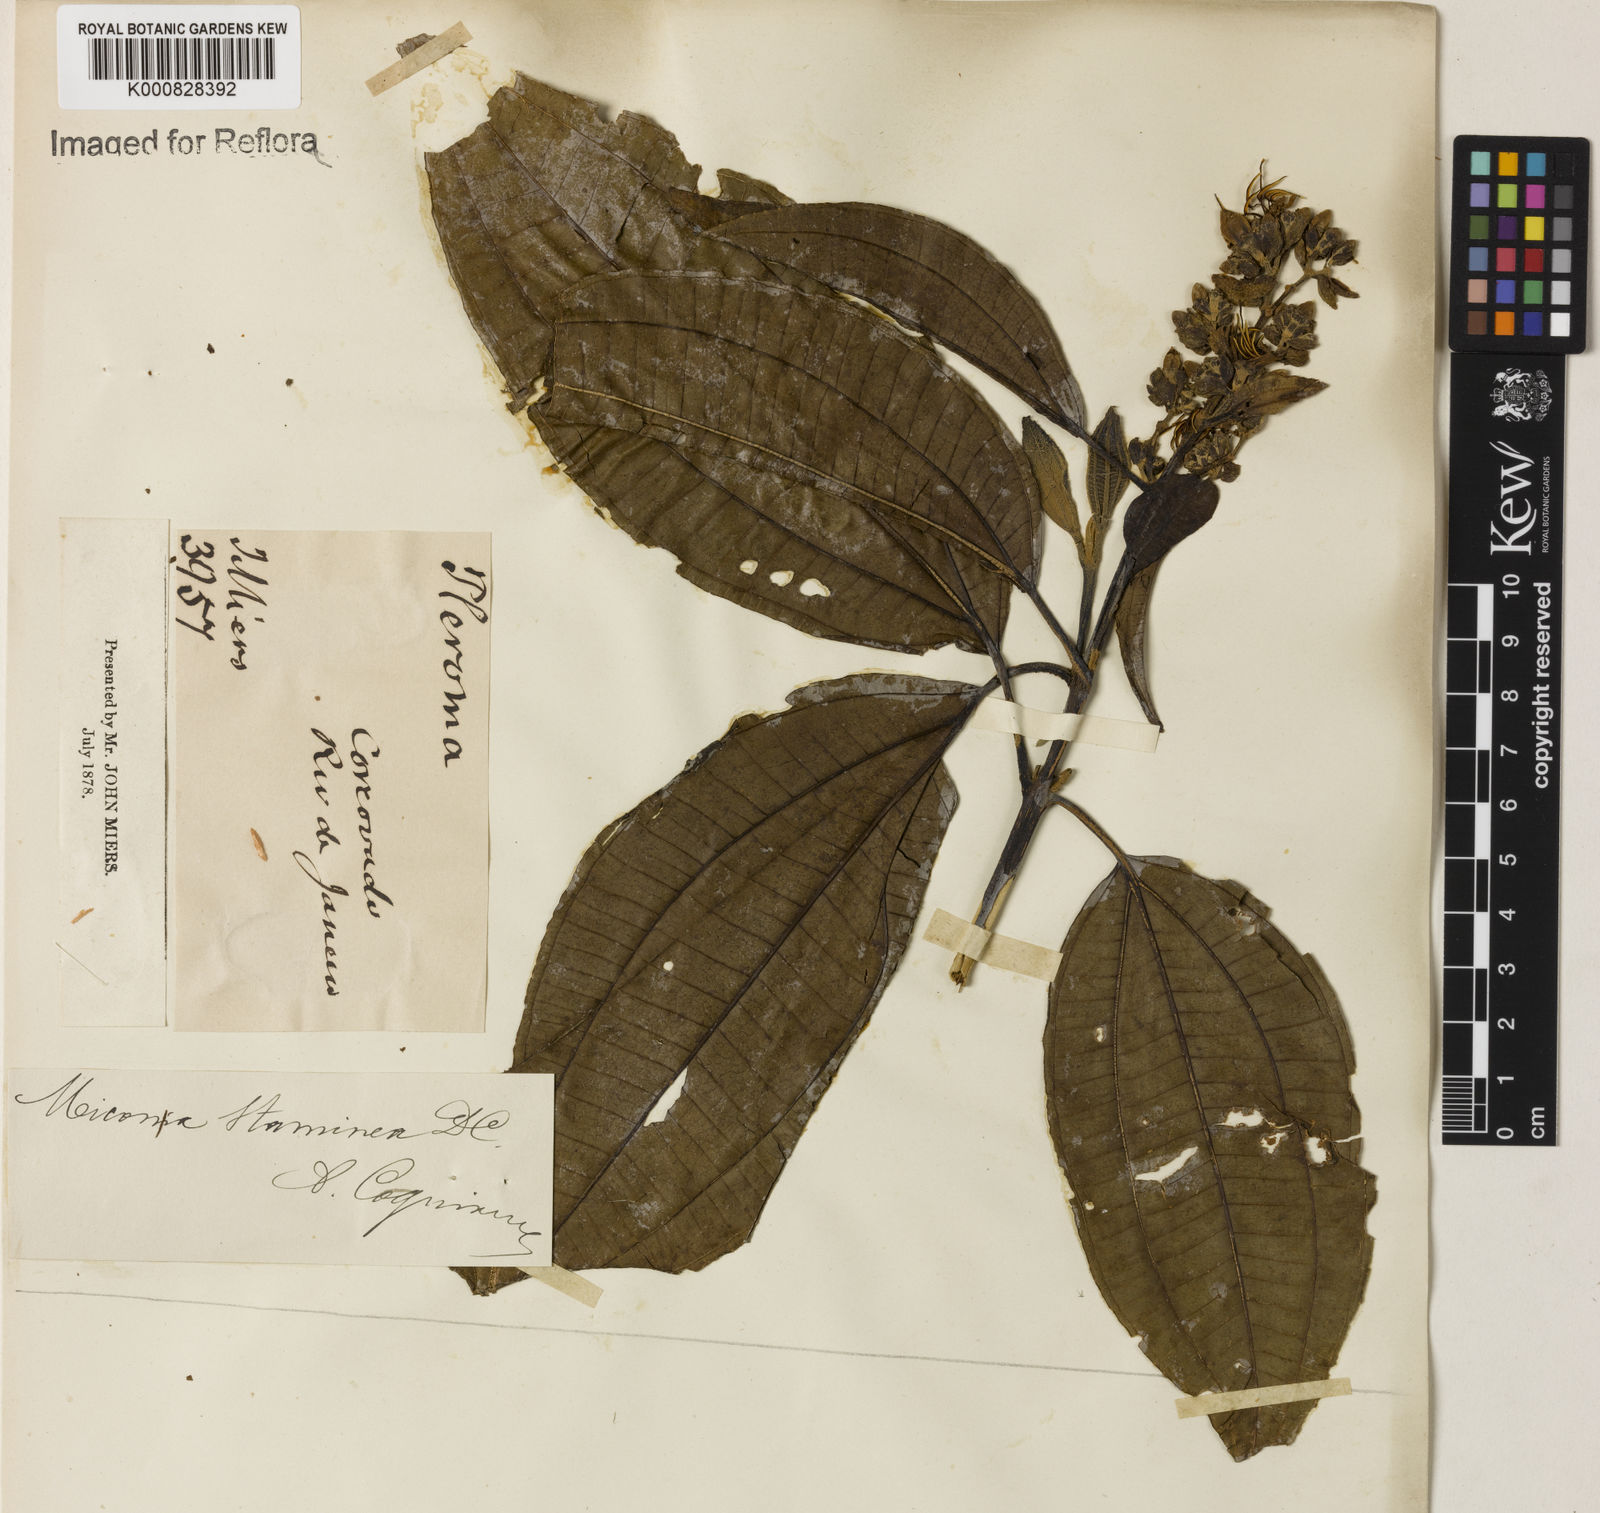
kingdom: Plantae
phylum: Tracheophyta
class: Magnoliopsida
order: Myrtales
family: Melastomataceae
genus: Miconia
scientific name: Miconia staminea
